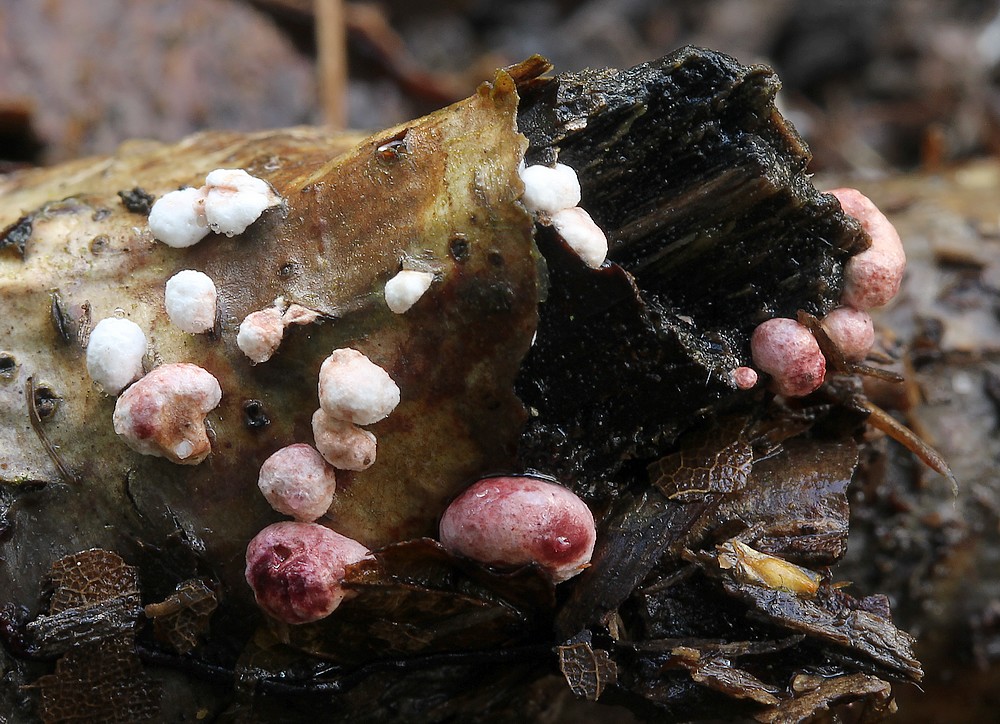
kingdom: Fungi
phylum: Ascomycota
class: Sordariomycetes
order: Hypocreales
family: Hypocreaceae
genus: Trichoderma
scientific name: Trichoderma europaeum
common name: rosabrun kødkerne
